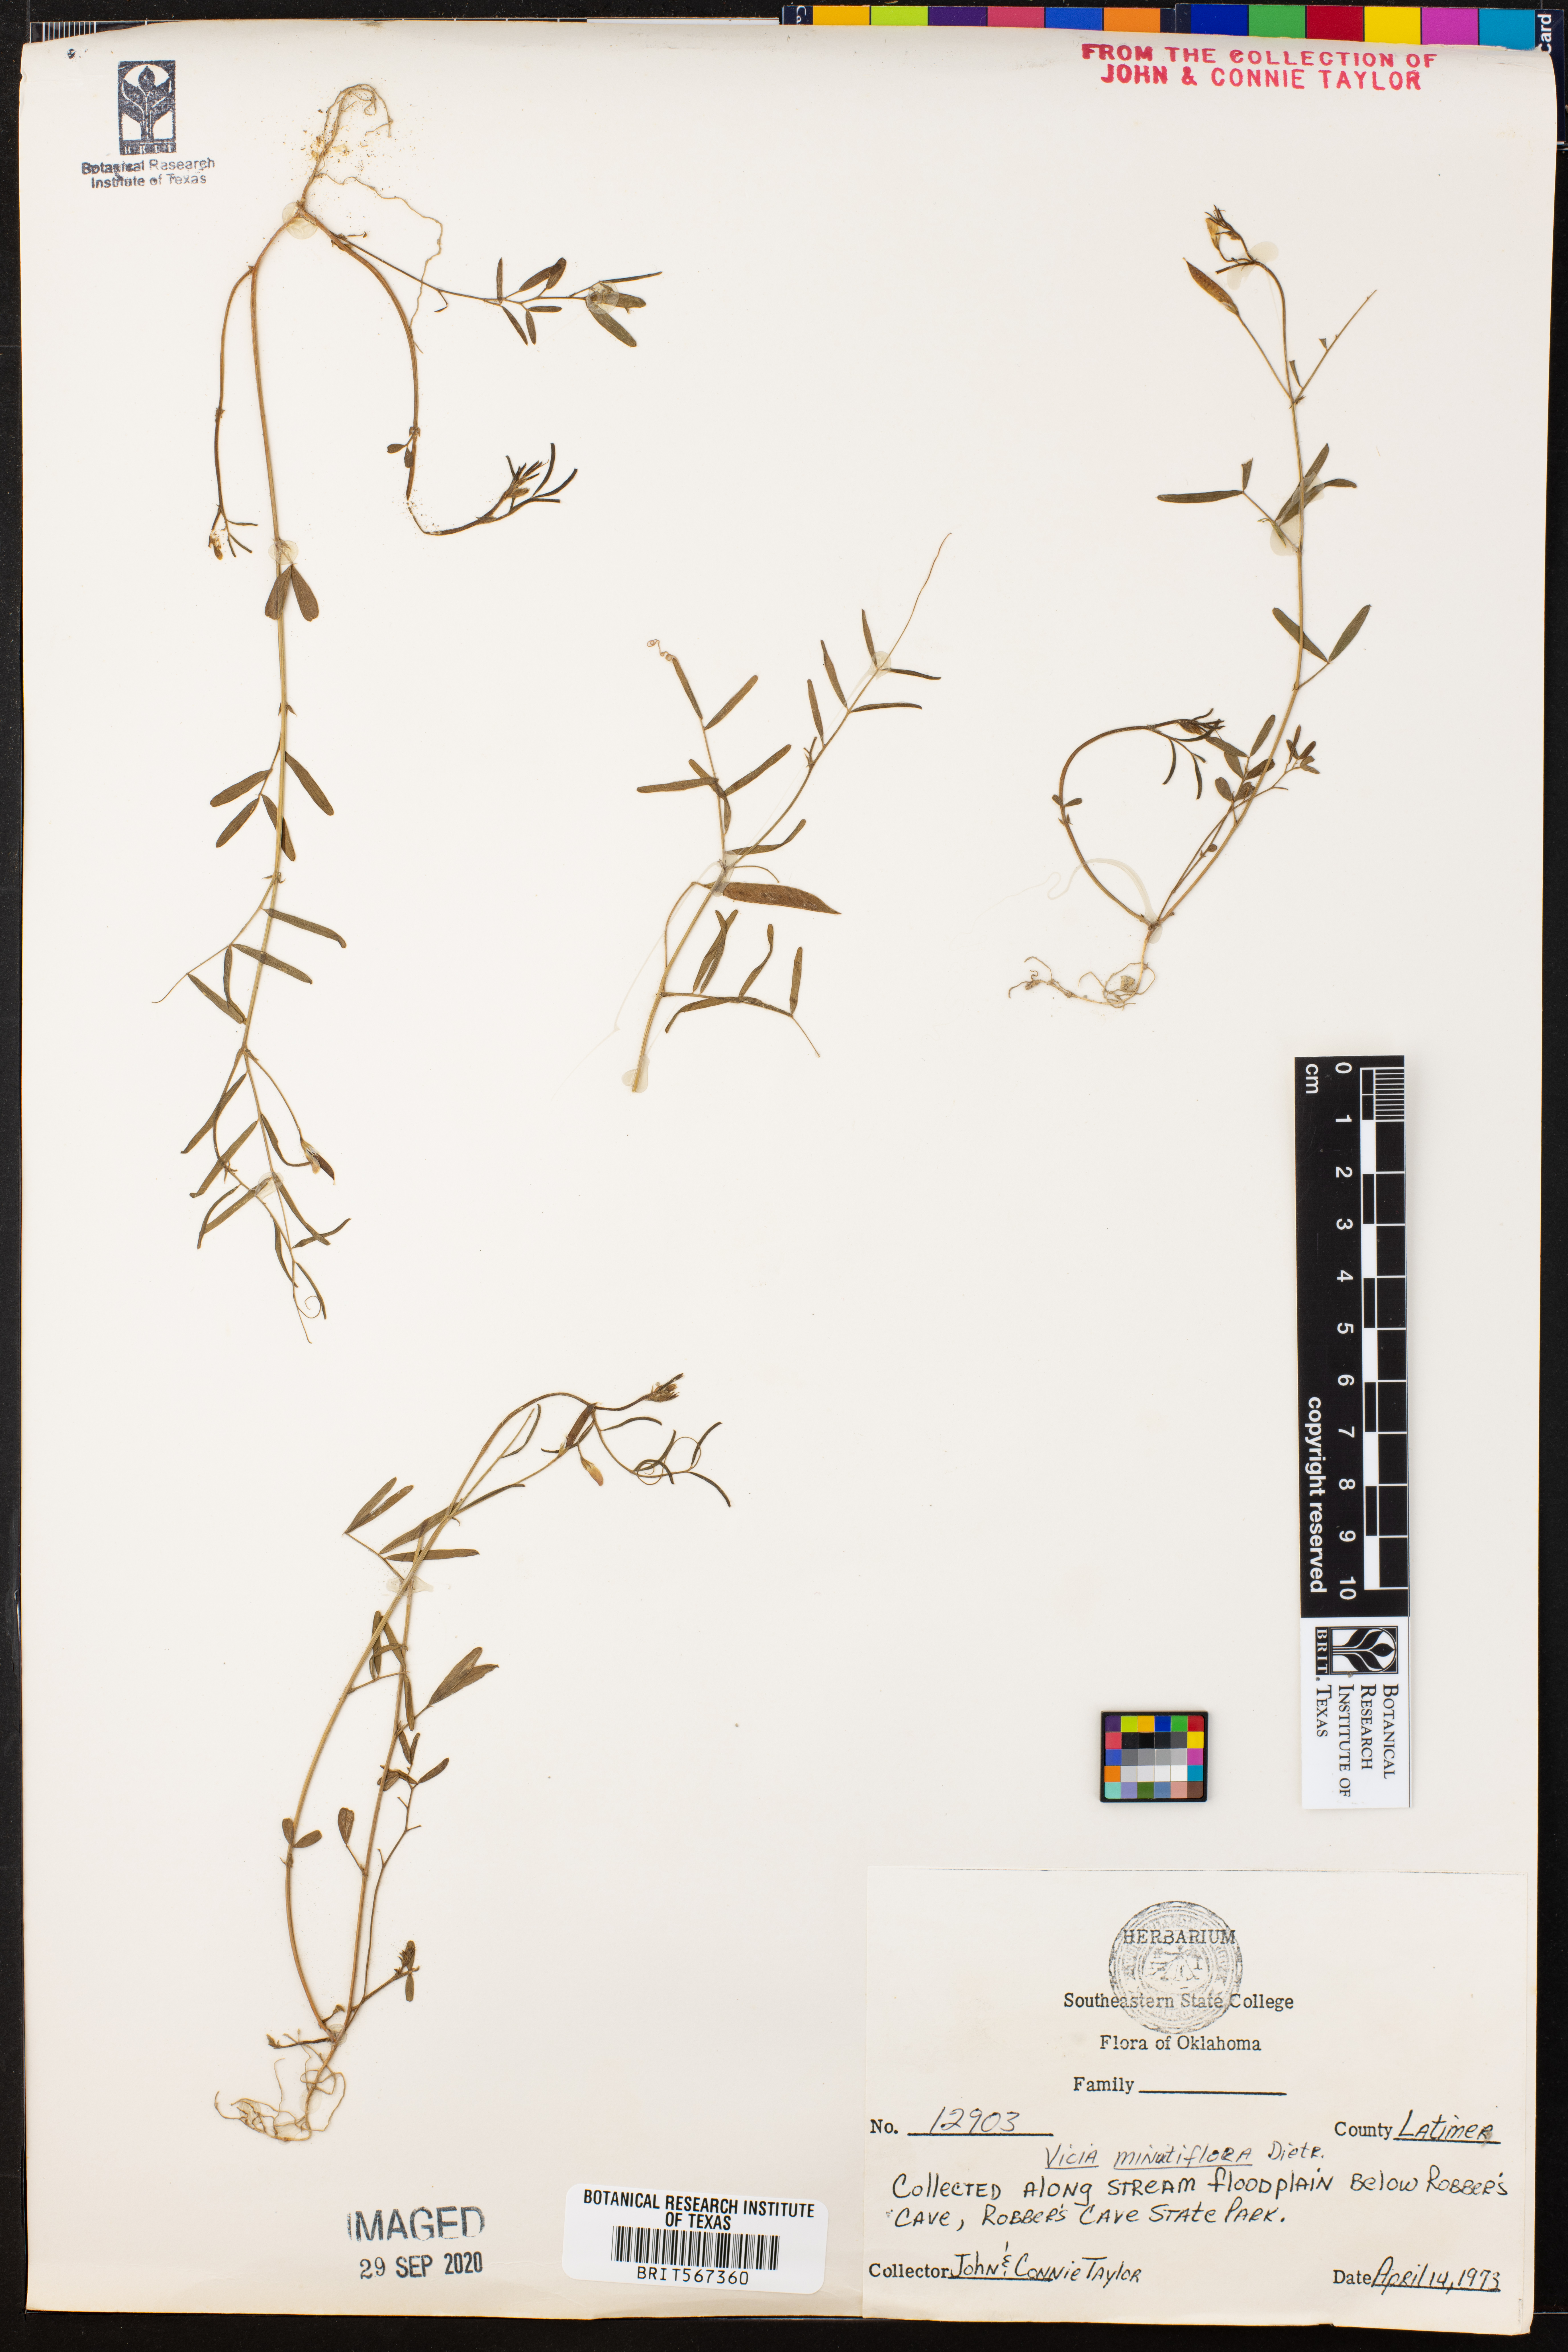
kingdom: Plantae
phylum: Tracheophyta
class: Magnoliopsida
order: Fabales
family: Fabaceae
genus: Vicia
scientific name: Vicia minutiflora
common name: Pygmy-flower vetch
